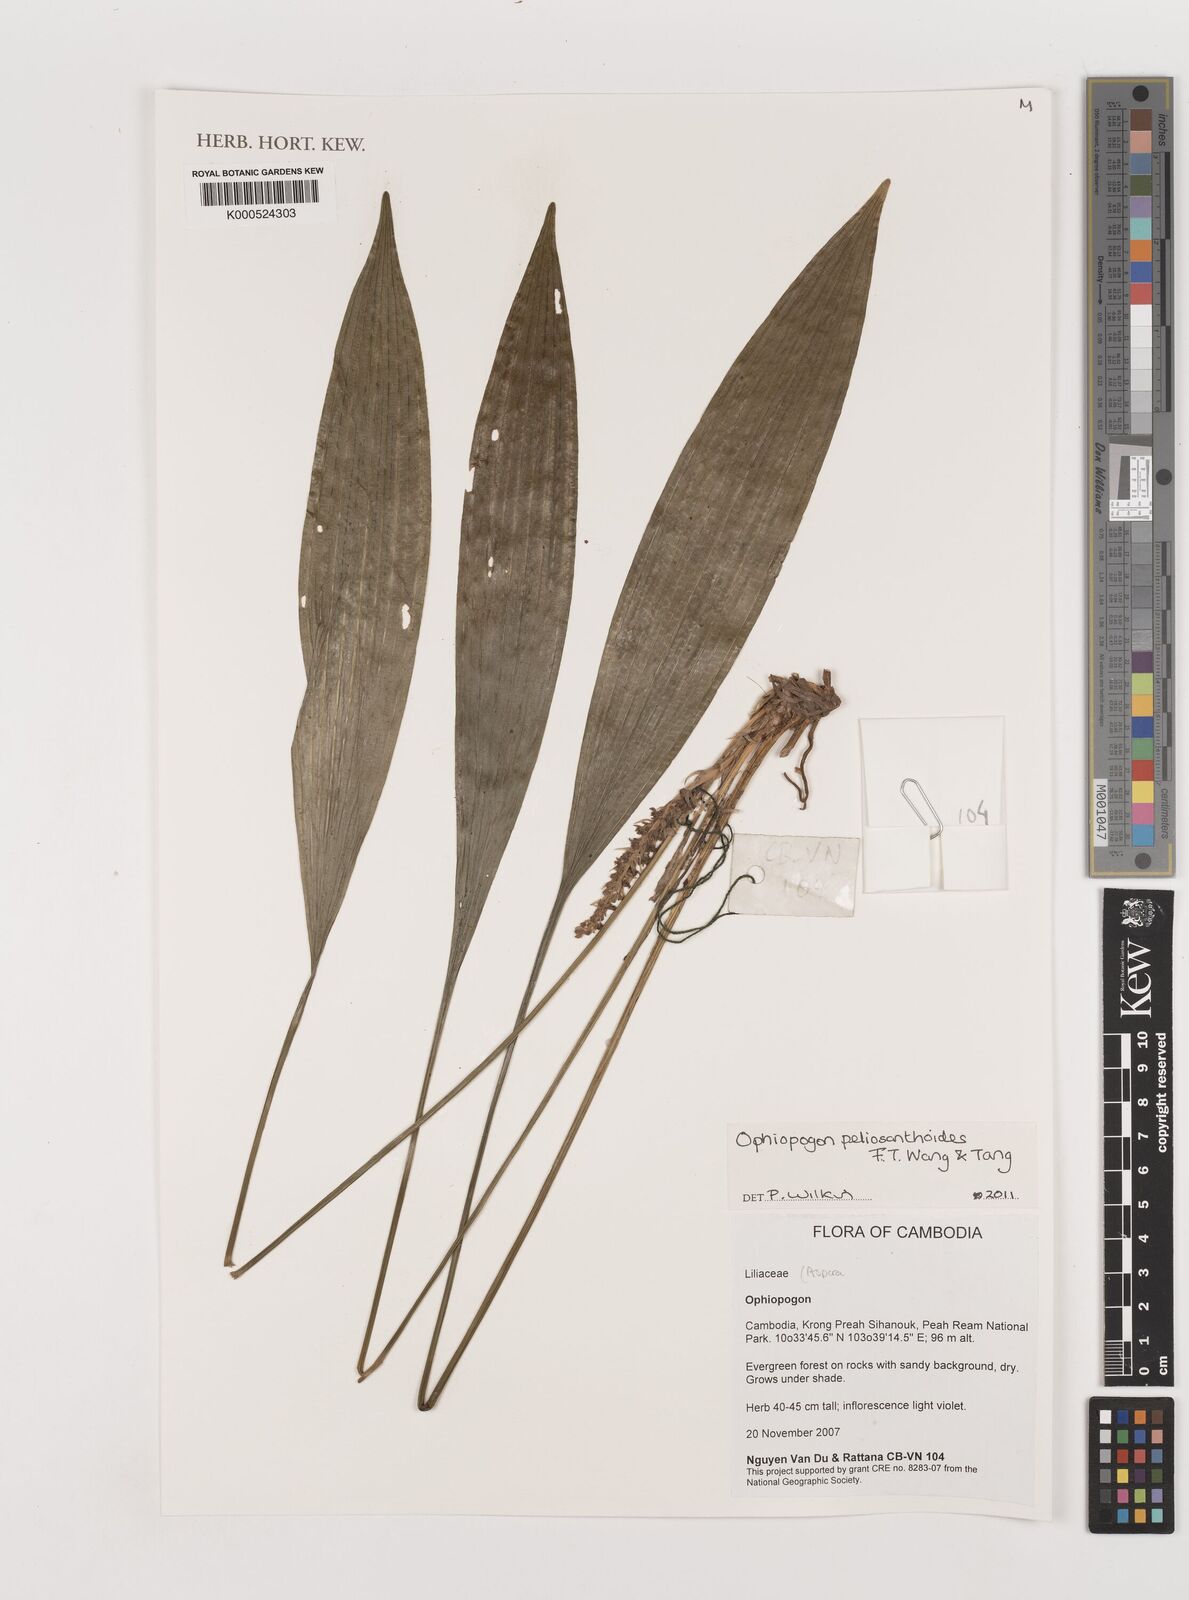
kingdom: Plantae
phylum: Tracheophyta
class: Liliopsida
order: Asparagales
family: Asparagaceae
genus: Ophiopogon
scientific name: Ophiopogon peliosanthoides
